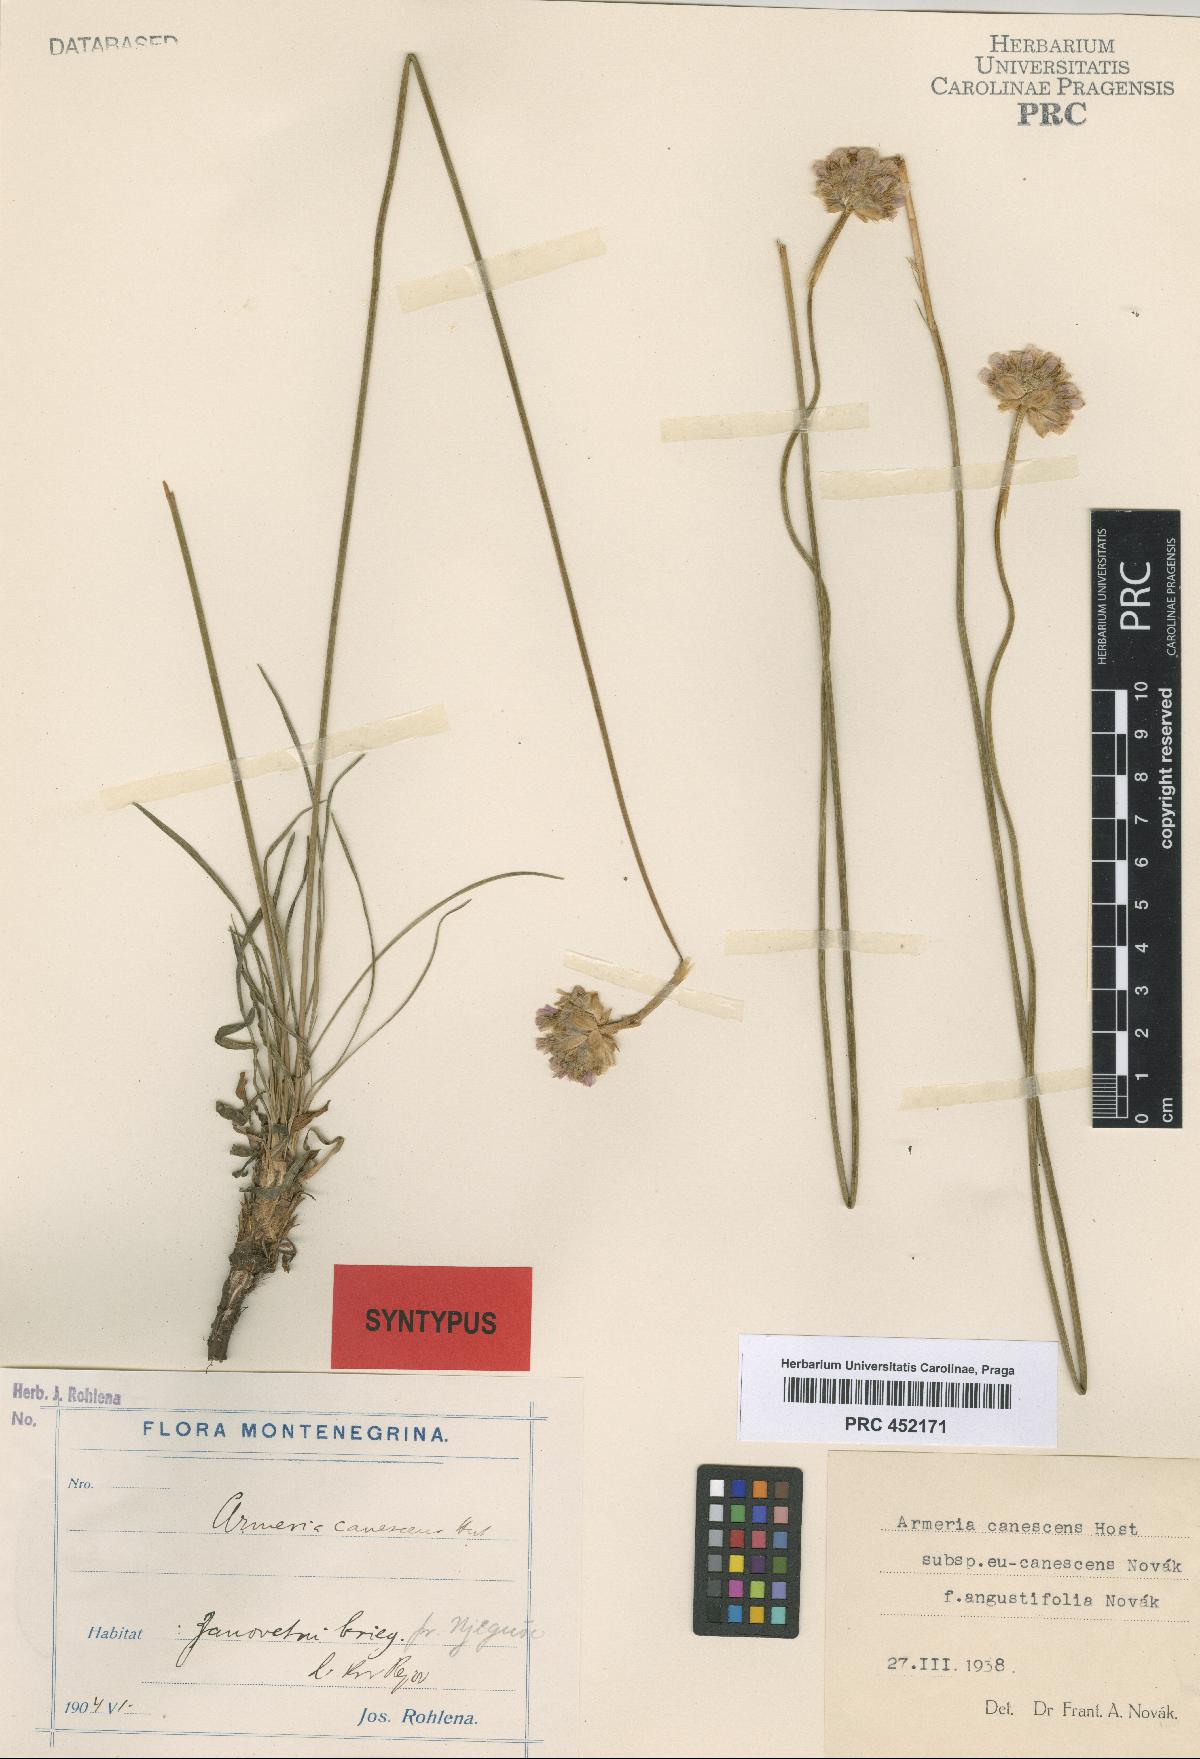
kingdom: Plantae
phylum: Tracheophyta
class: Magnoliopsida
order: Caryophyllales
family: Plumbaginaceae
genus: Armeria
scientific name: Armeria canescens
